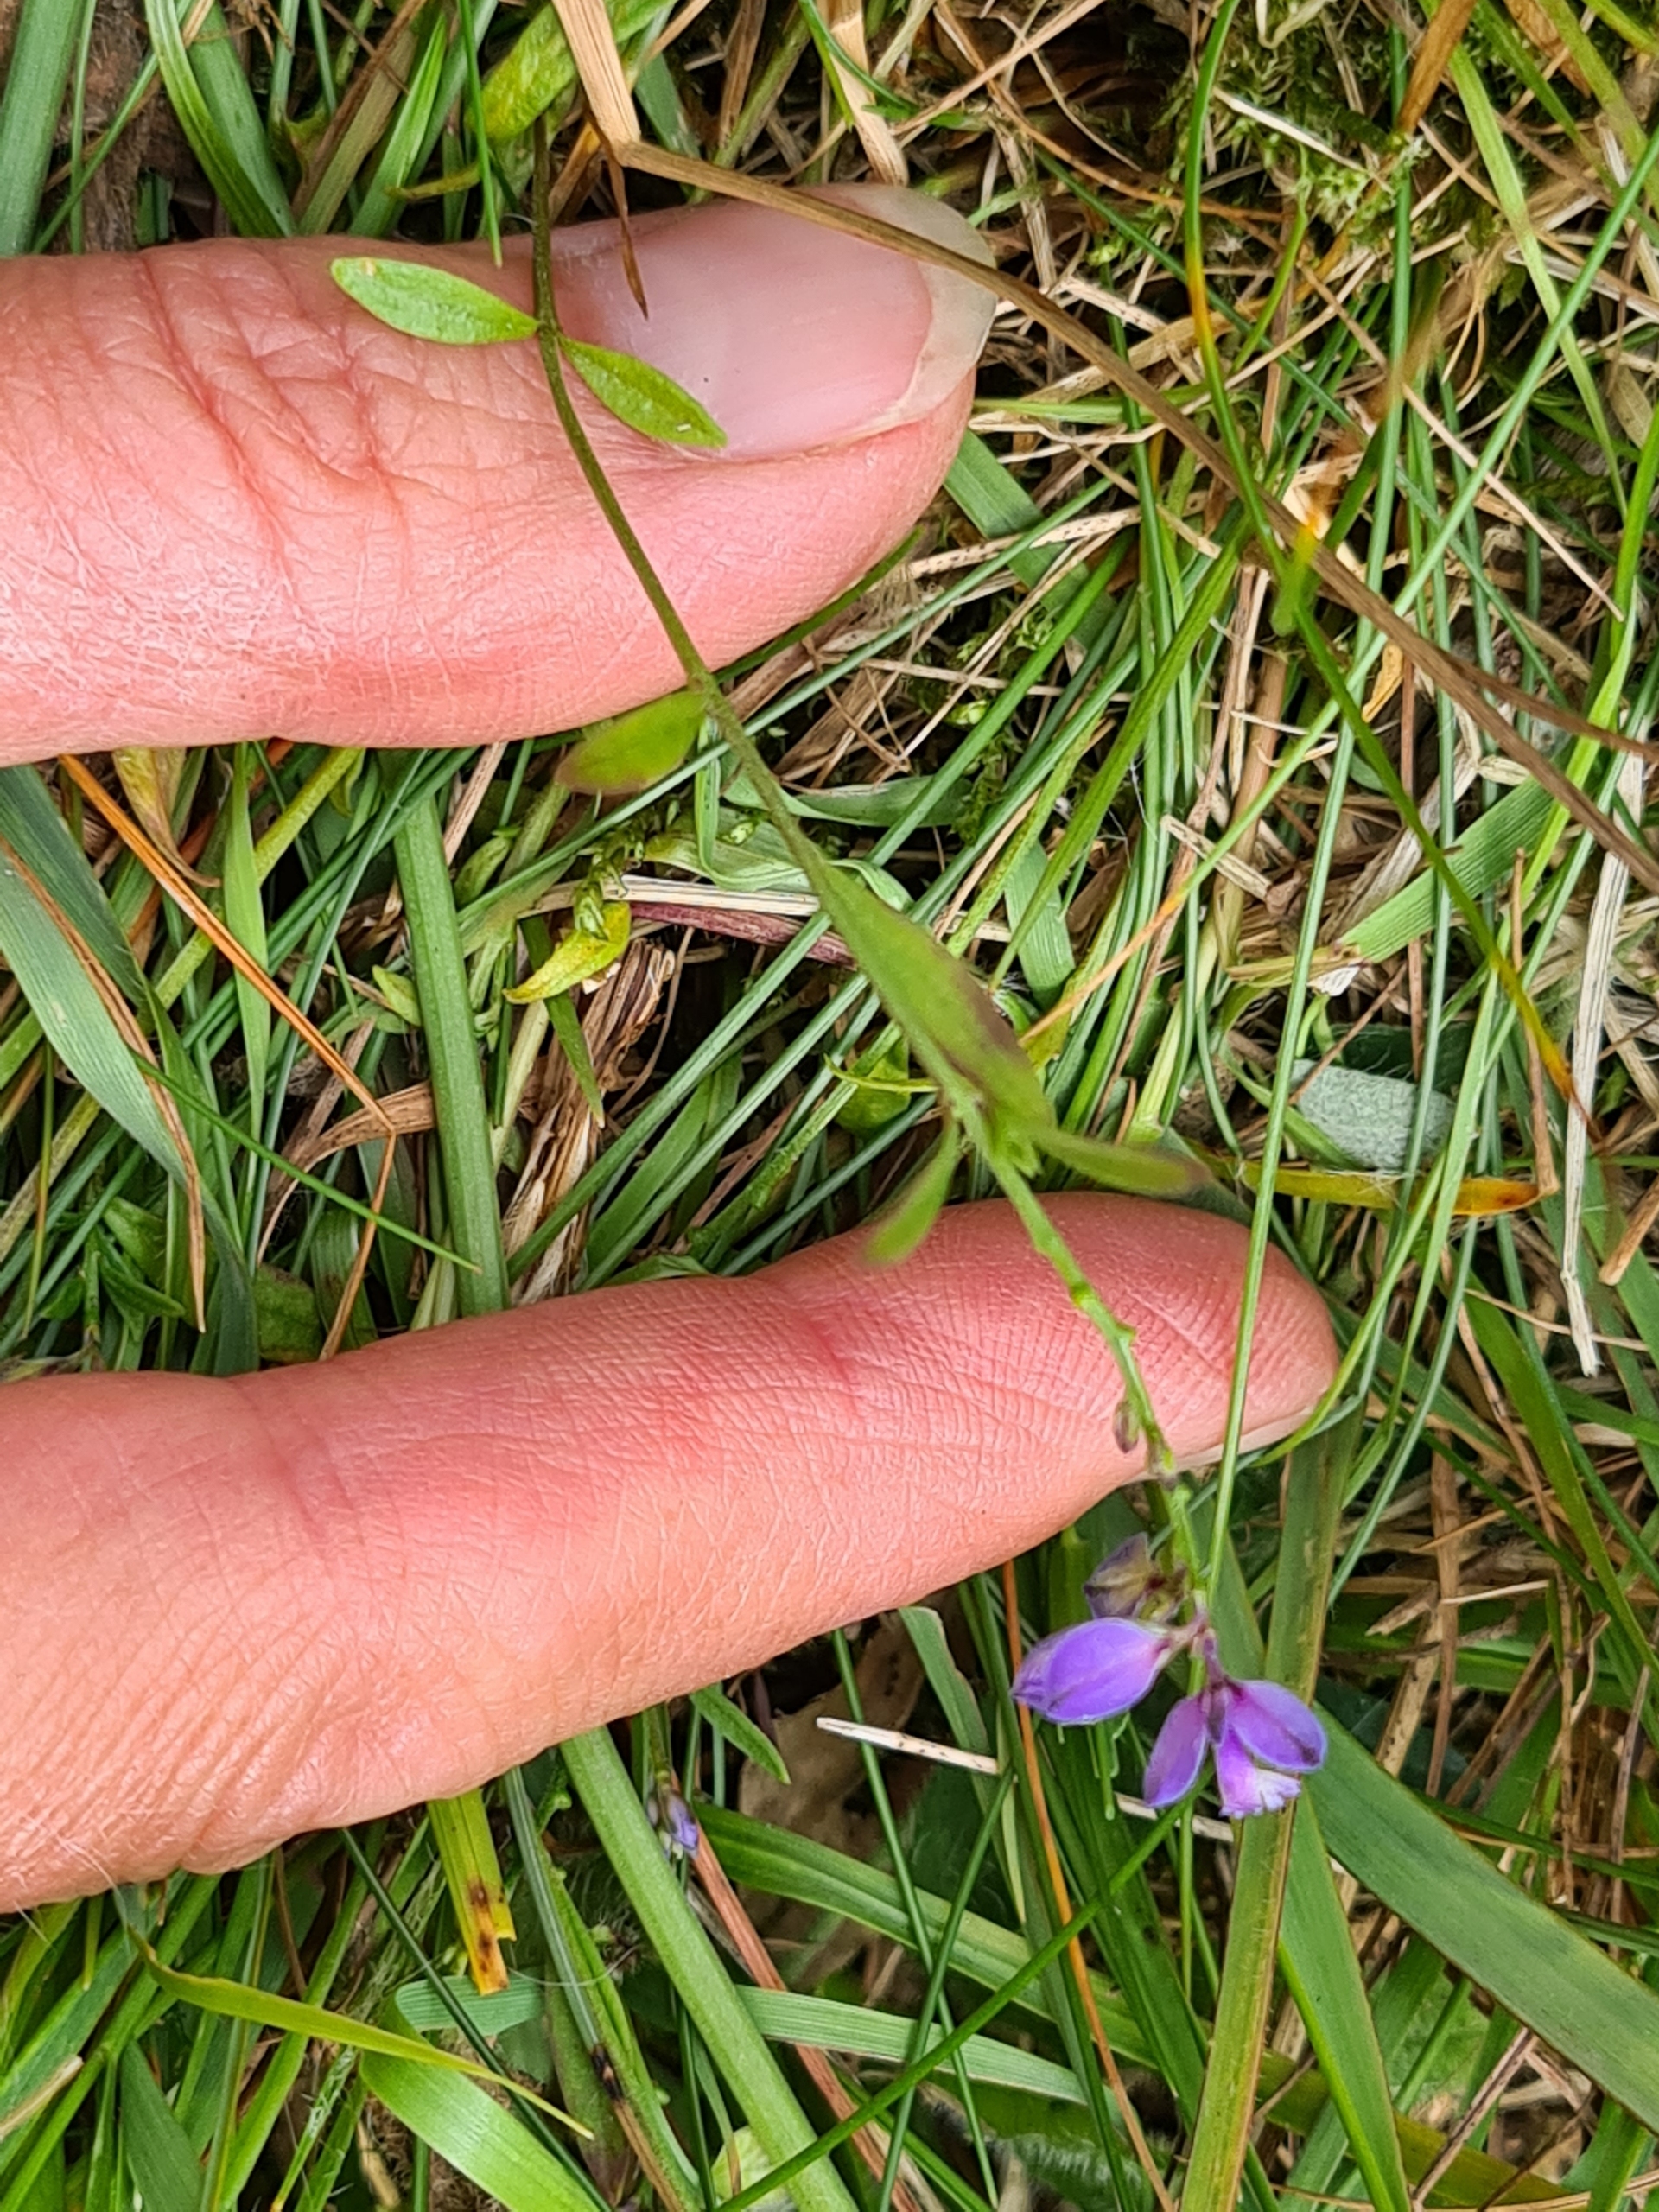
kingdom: Plantae
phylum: Tracheophyta
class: Magnoliopsida
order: Fabales
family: Polygalaceae
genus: Polygala
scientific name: Polygala serpyllifolia
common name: Spæd mælkeurt
